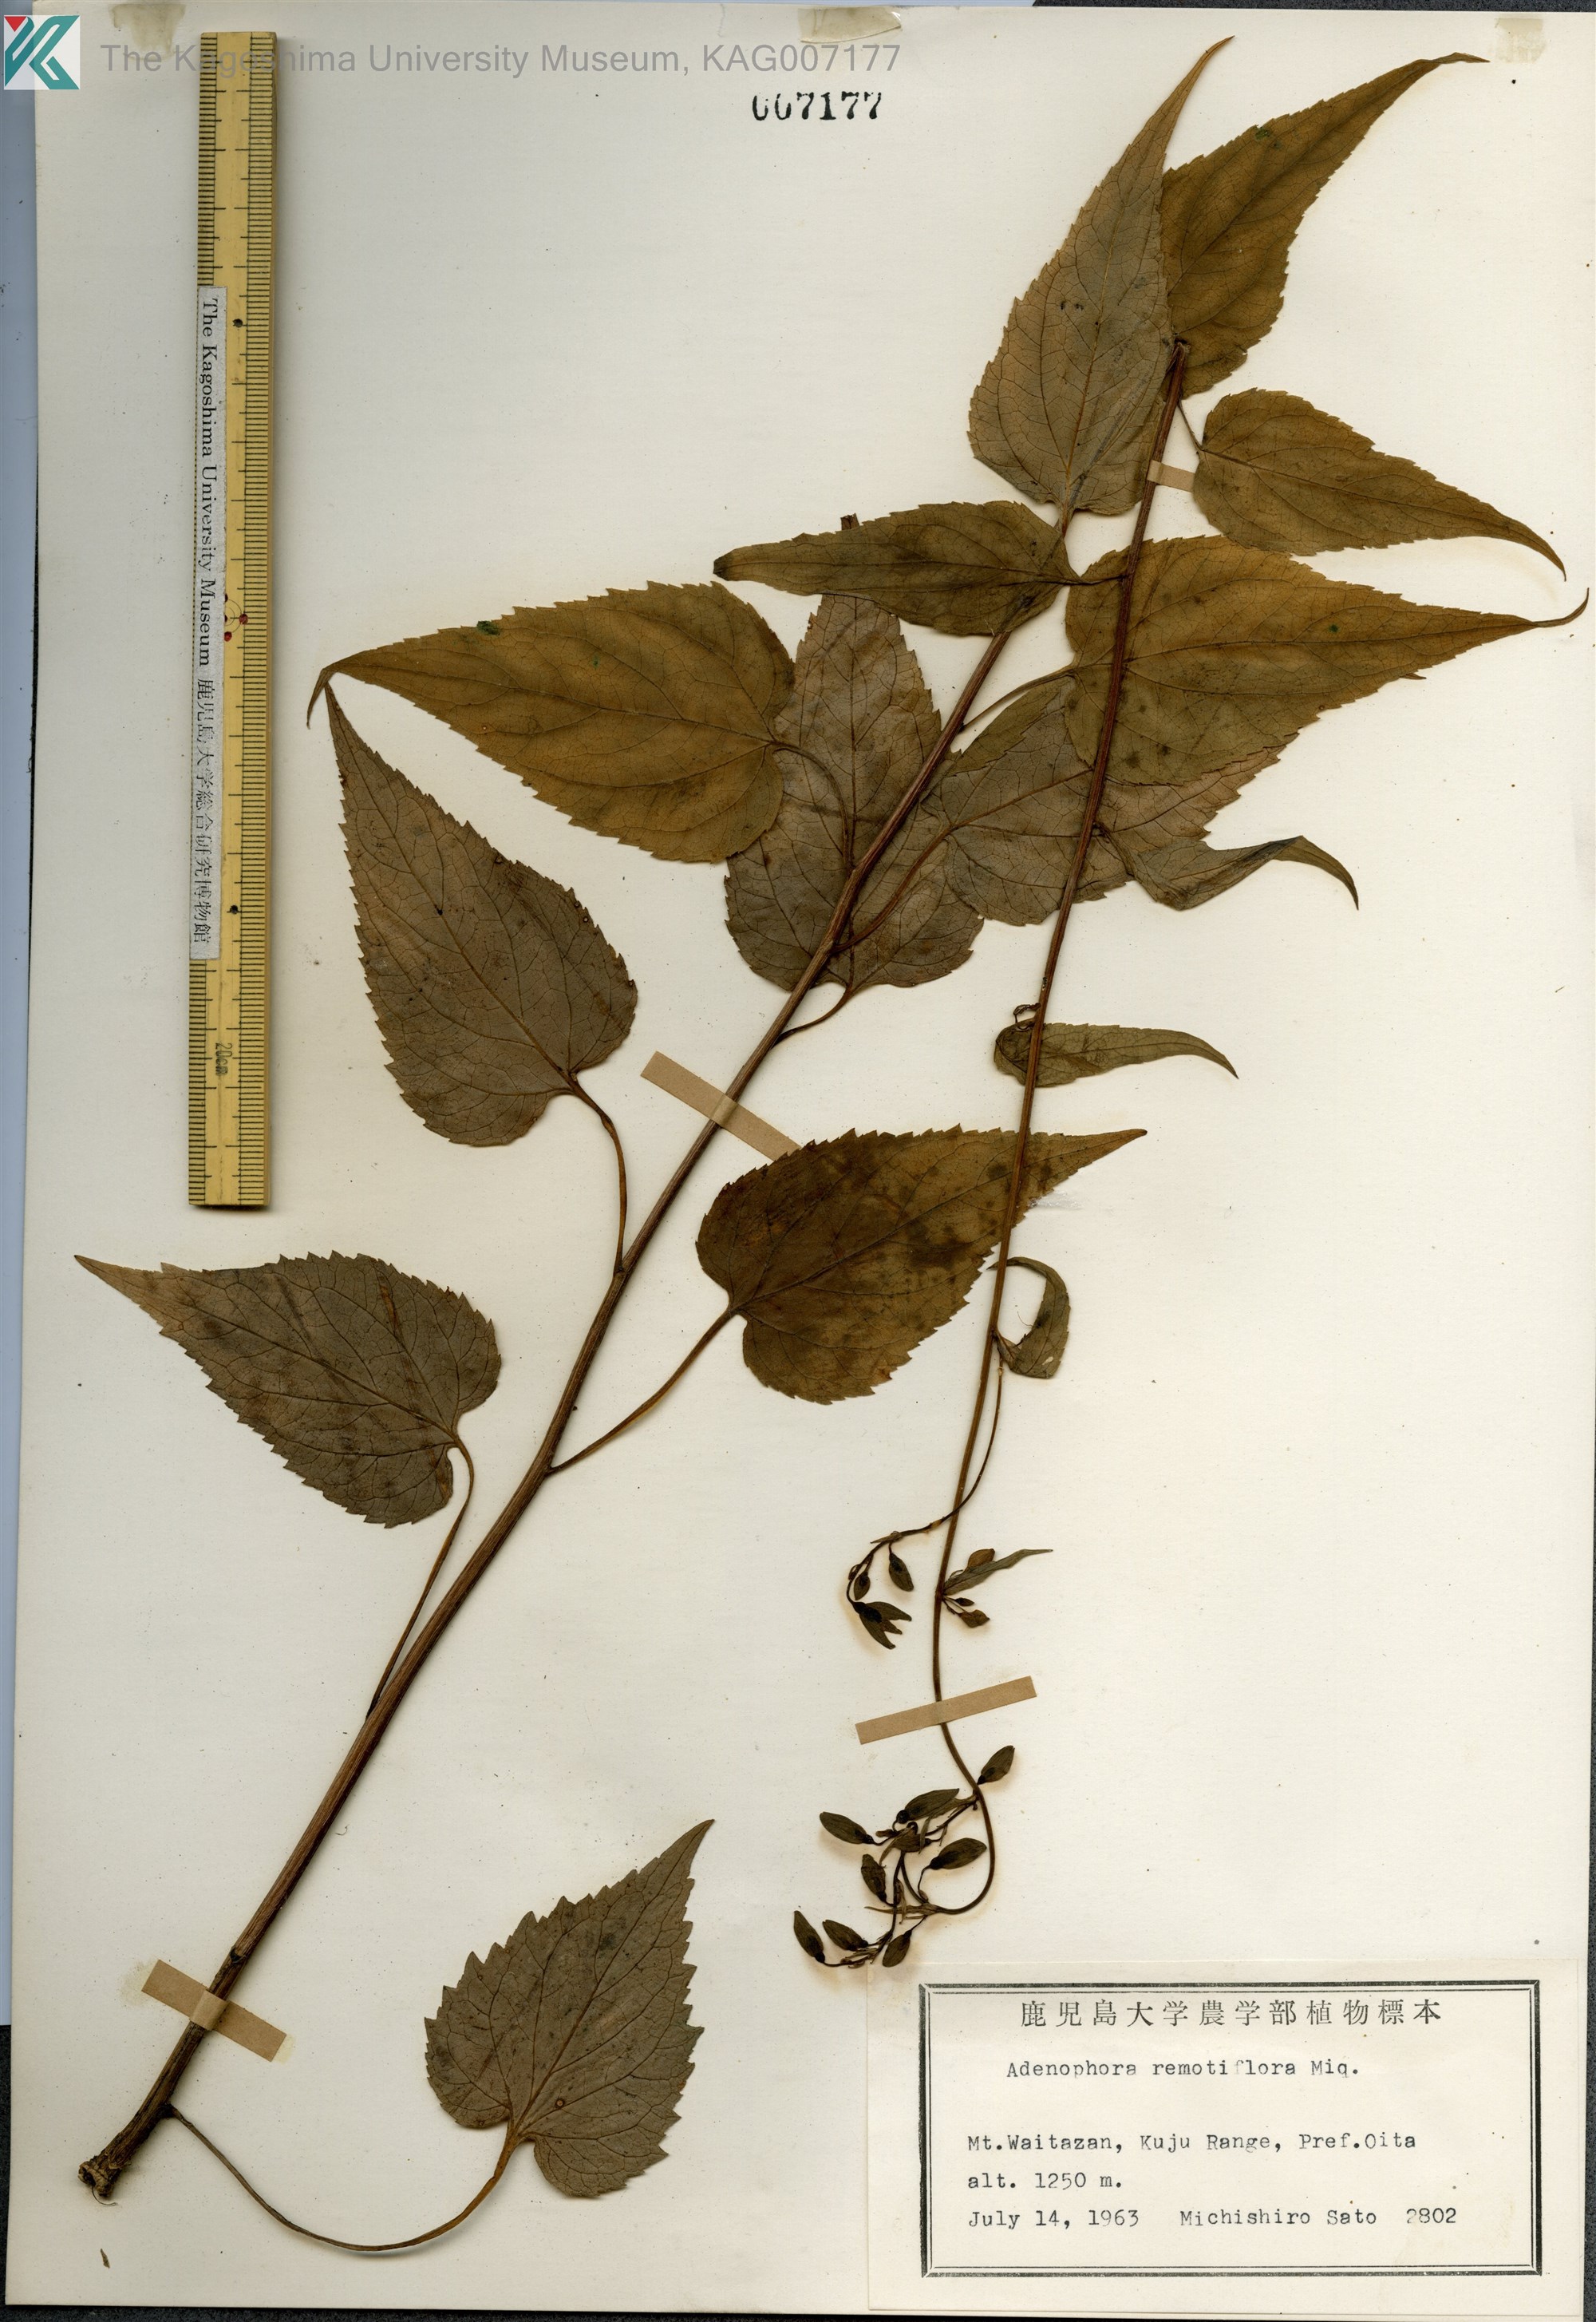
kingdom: Plantae
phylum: Tracheophyta
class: Magnoliopsida
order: Asterales
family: Campanulaceae
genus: Adenophora
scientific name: Adenophora remotiflora
